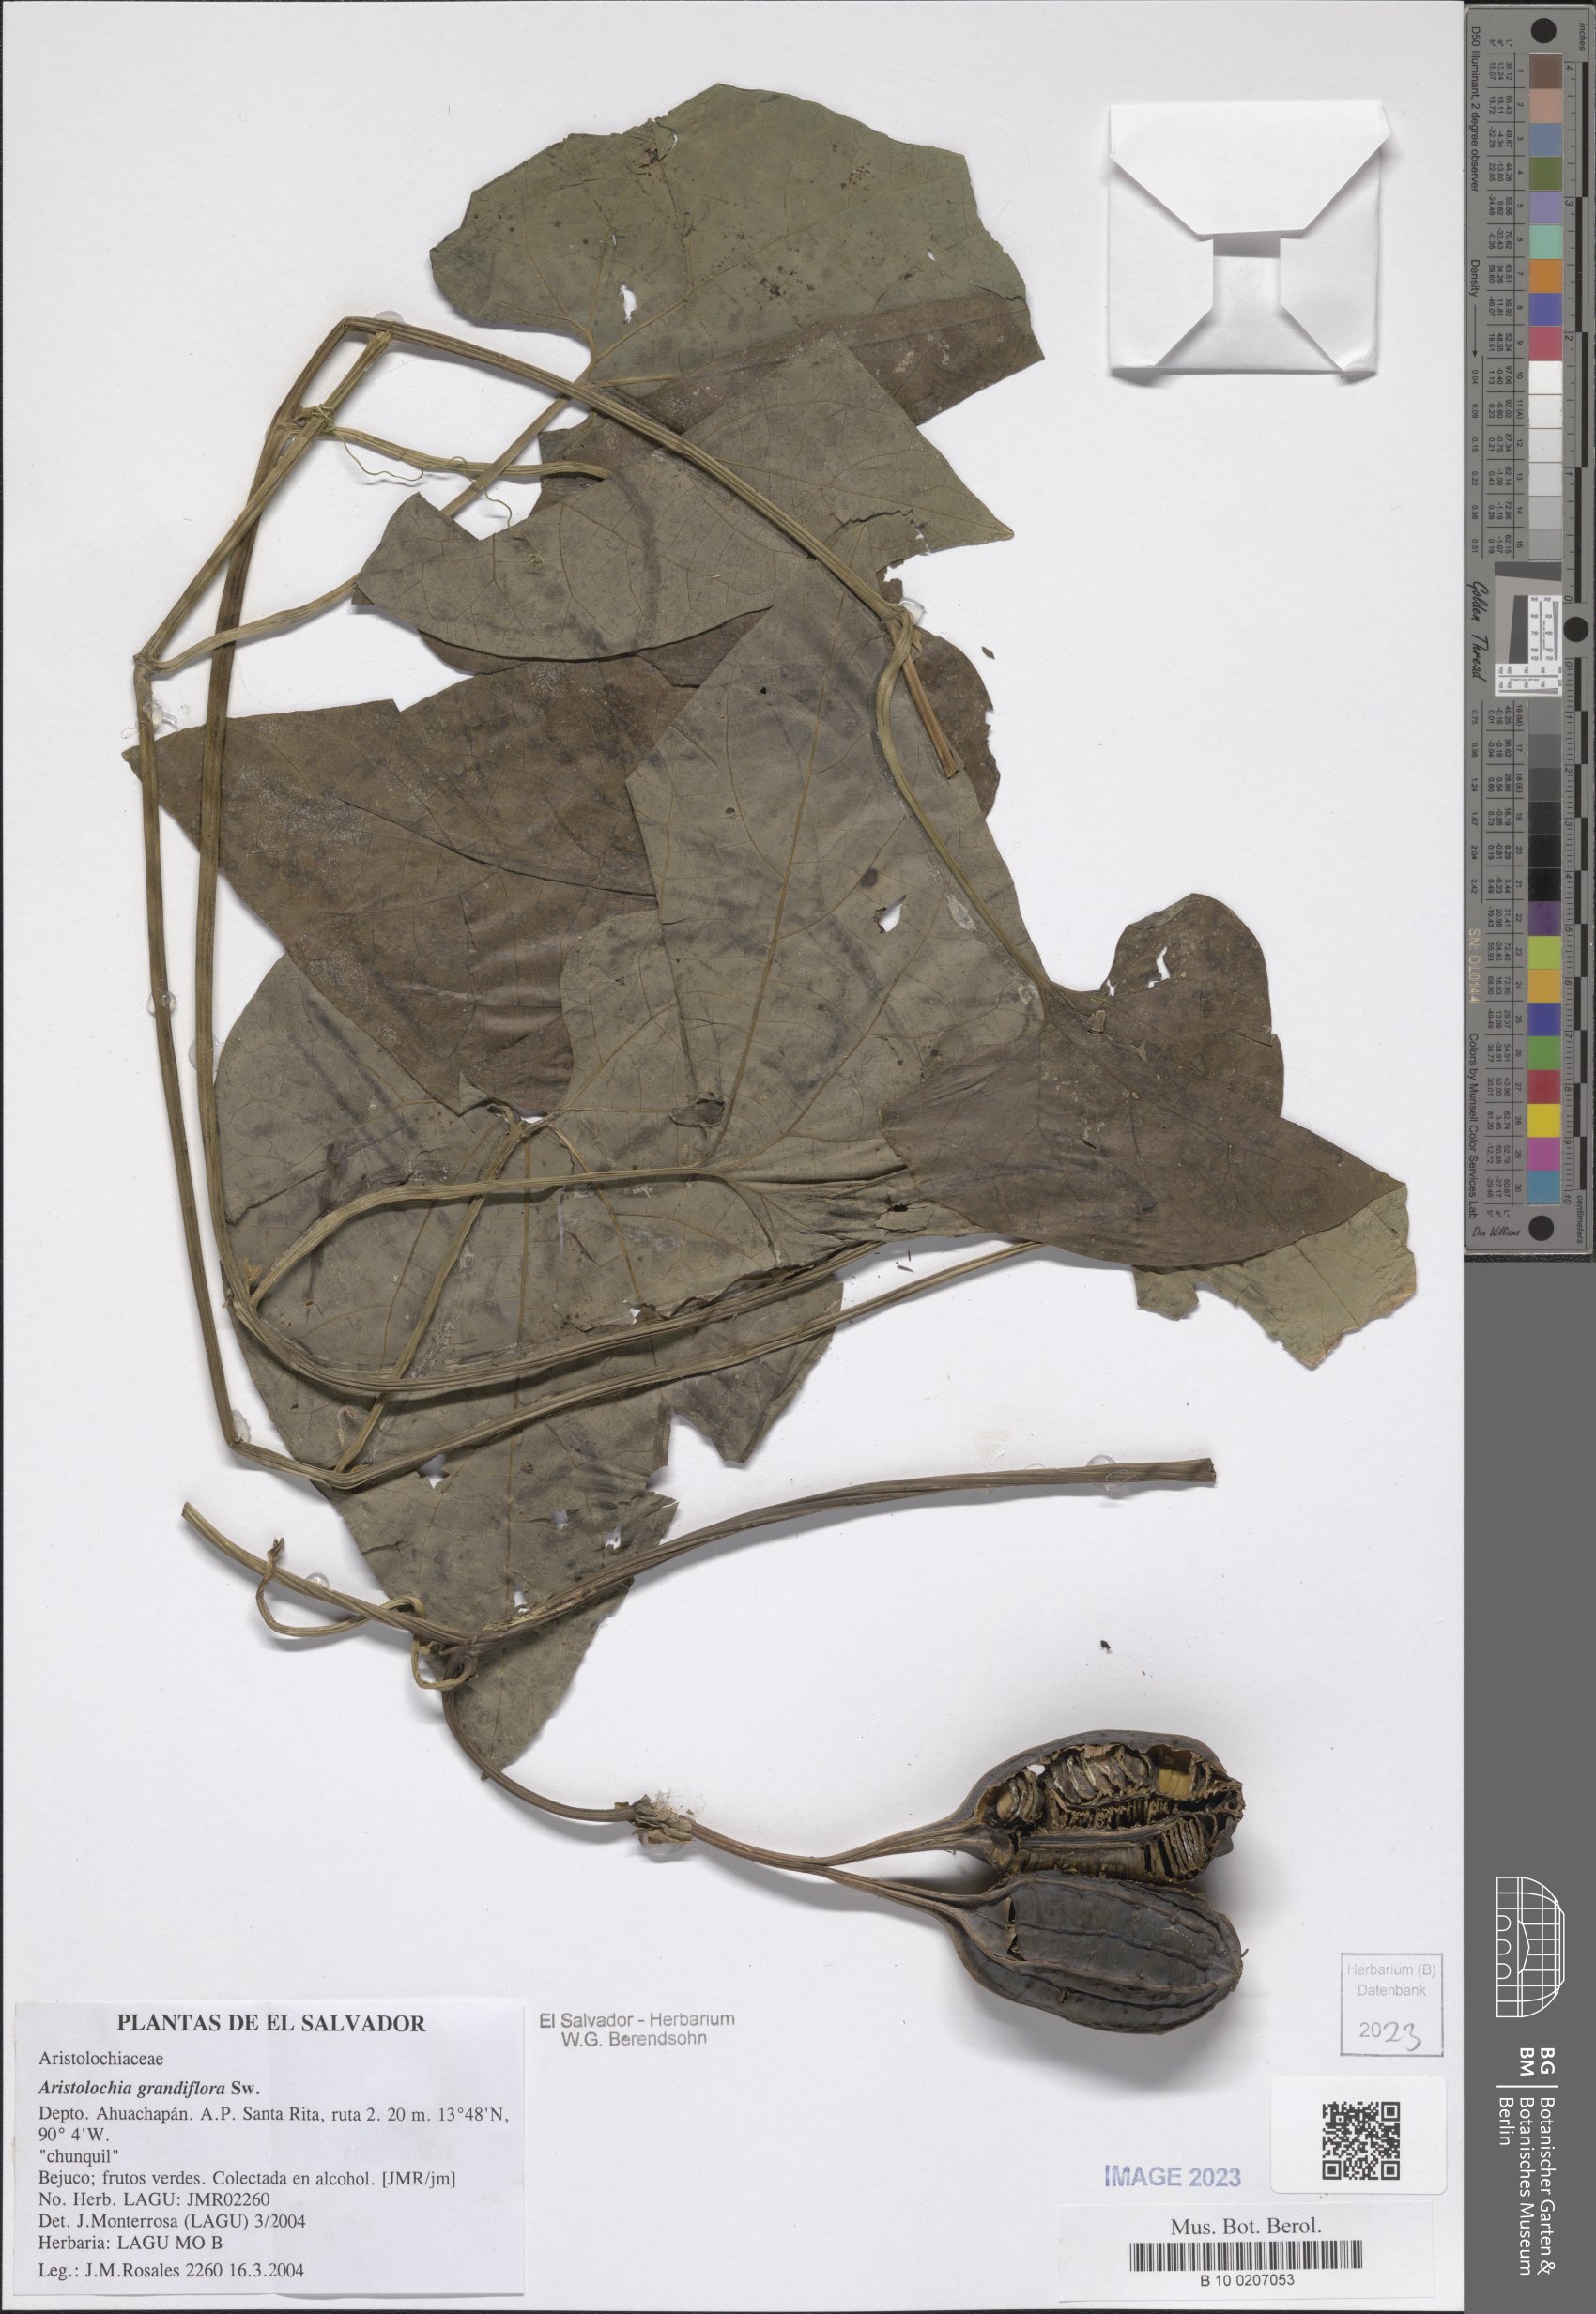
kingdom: Plantae
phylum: Tracheophyta
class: Magnoliopsida
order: Piperales
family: Aristolochiaceae
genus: Aristolochia
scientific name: Aristolochia grandiflora
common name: Pelicanflower
